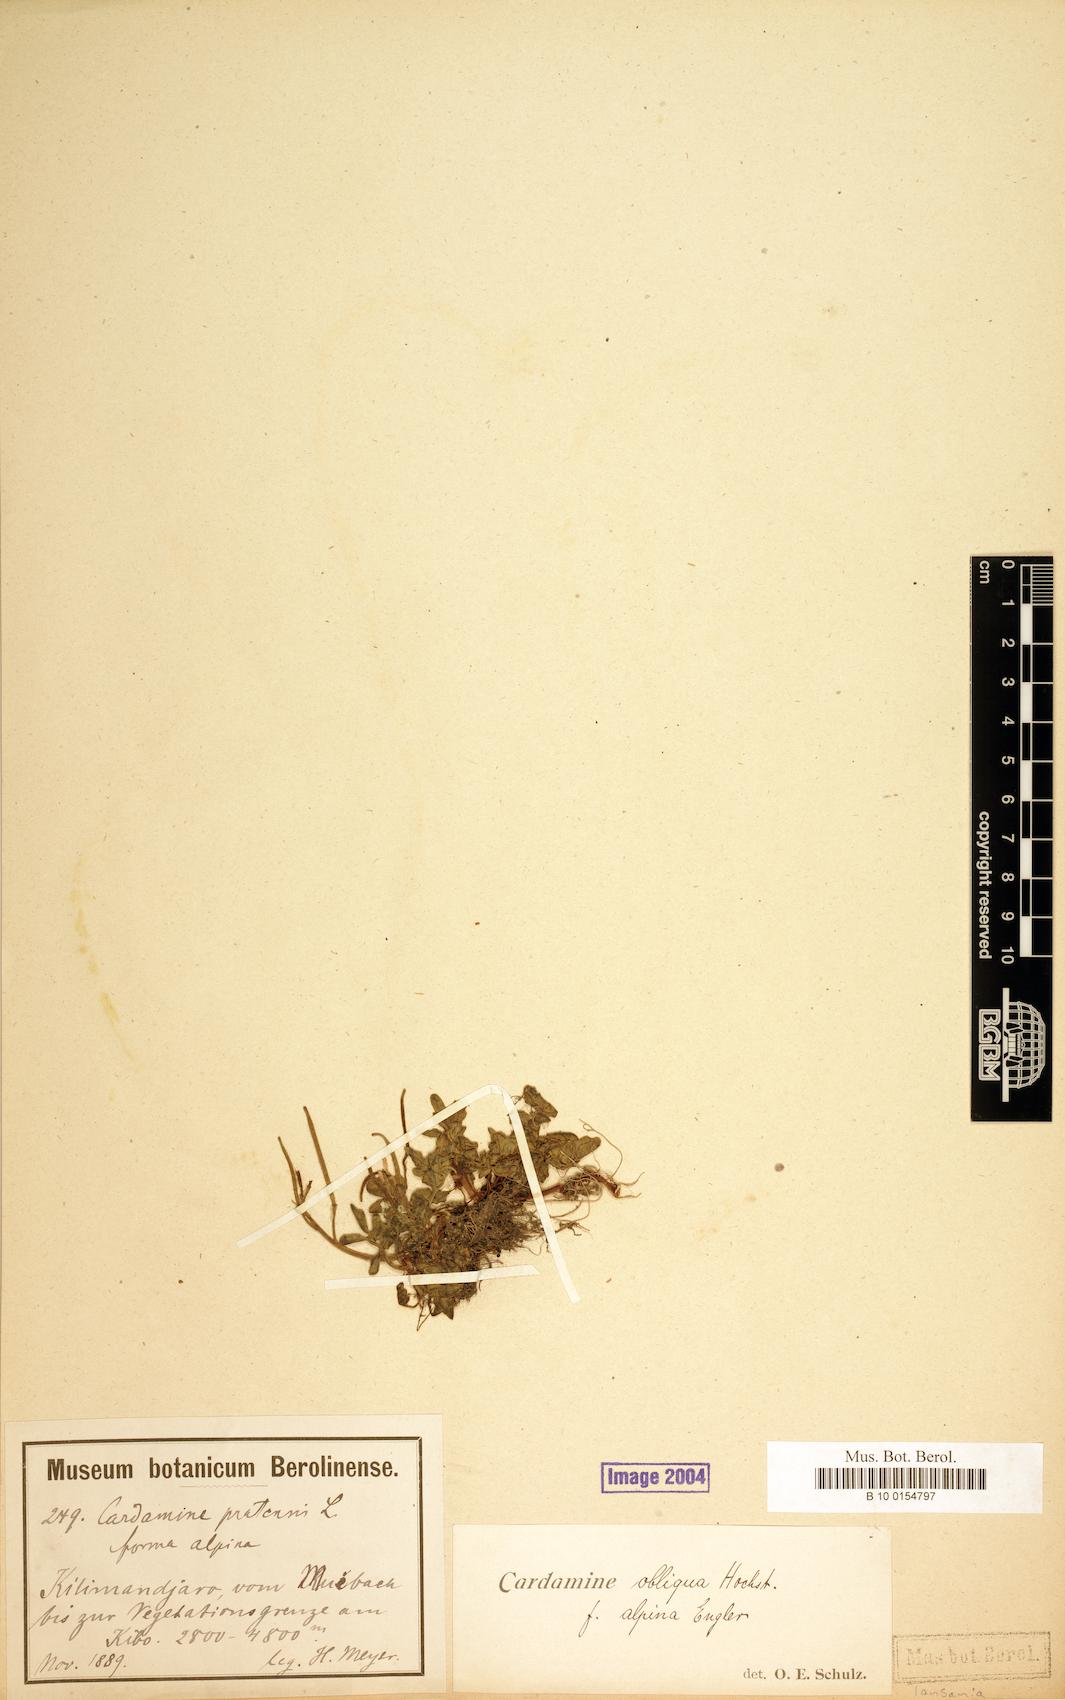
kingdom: Plantae
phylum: Tracheophyta
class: Magnoliopsida
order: Brassicales
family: Brassicaceae
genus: Cardamine
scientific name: Cardamine obliqua
